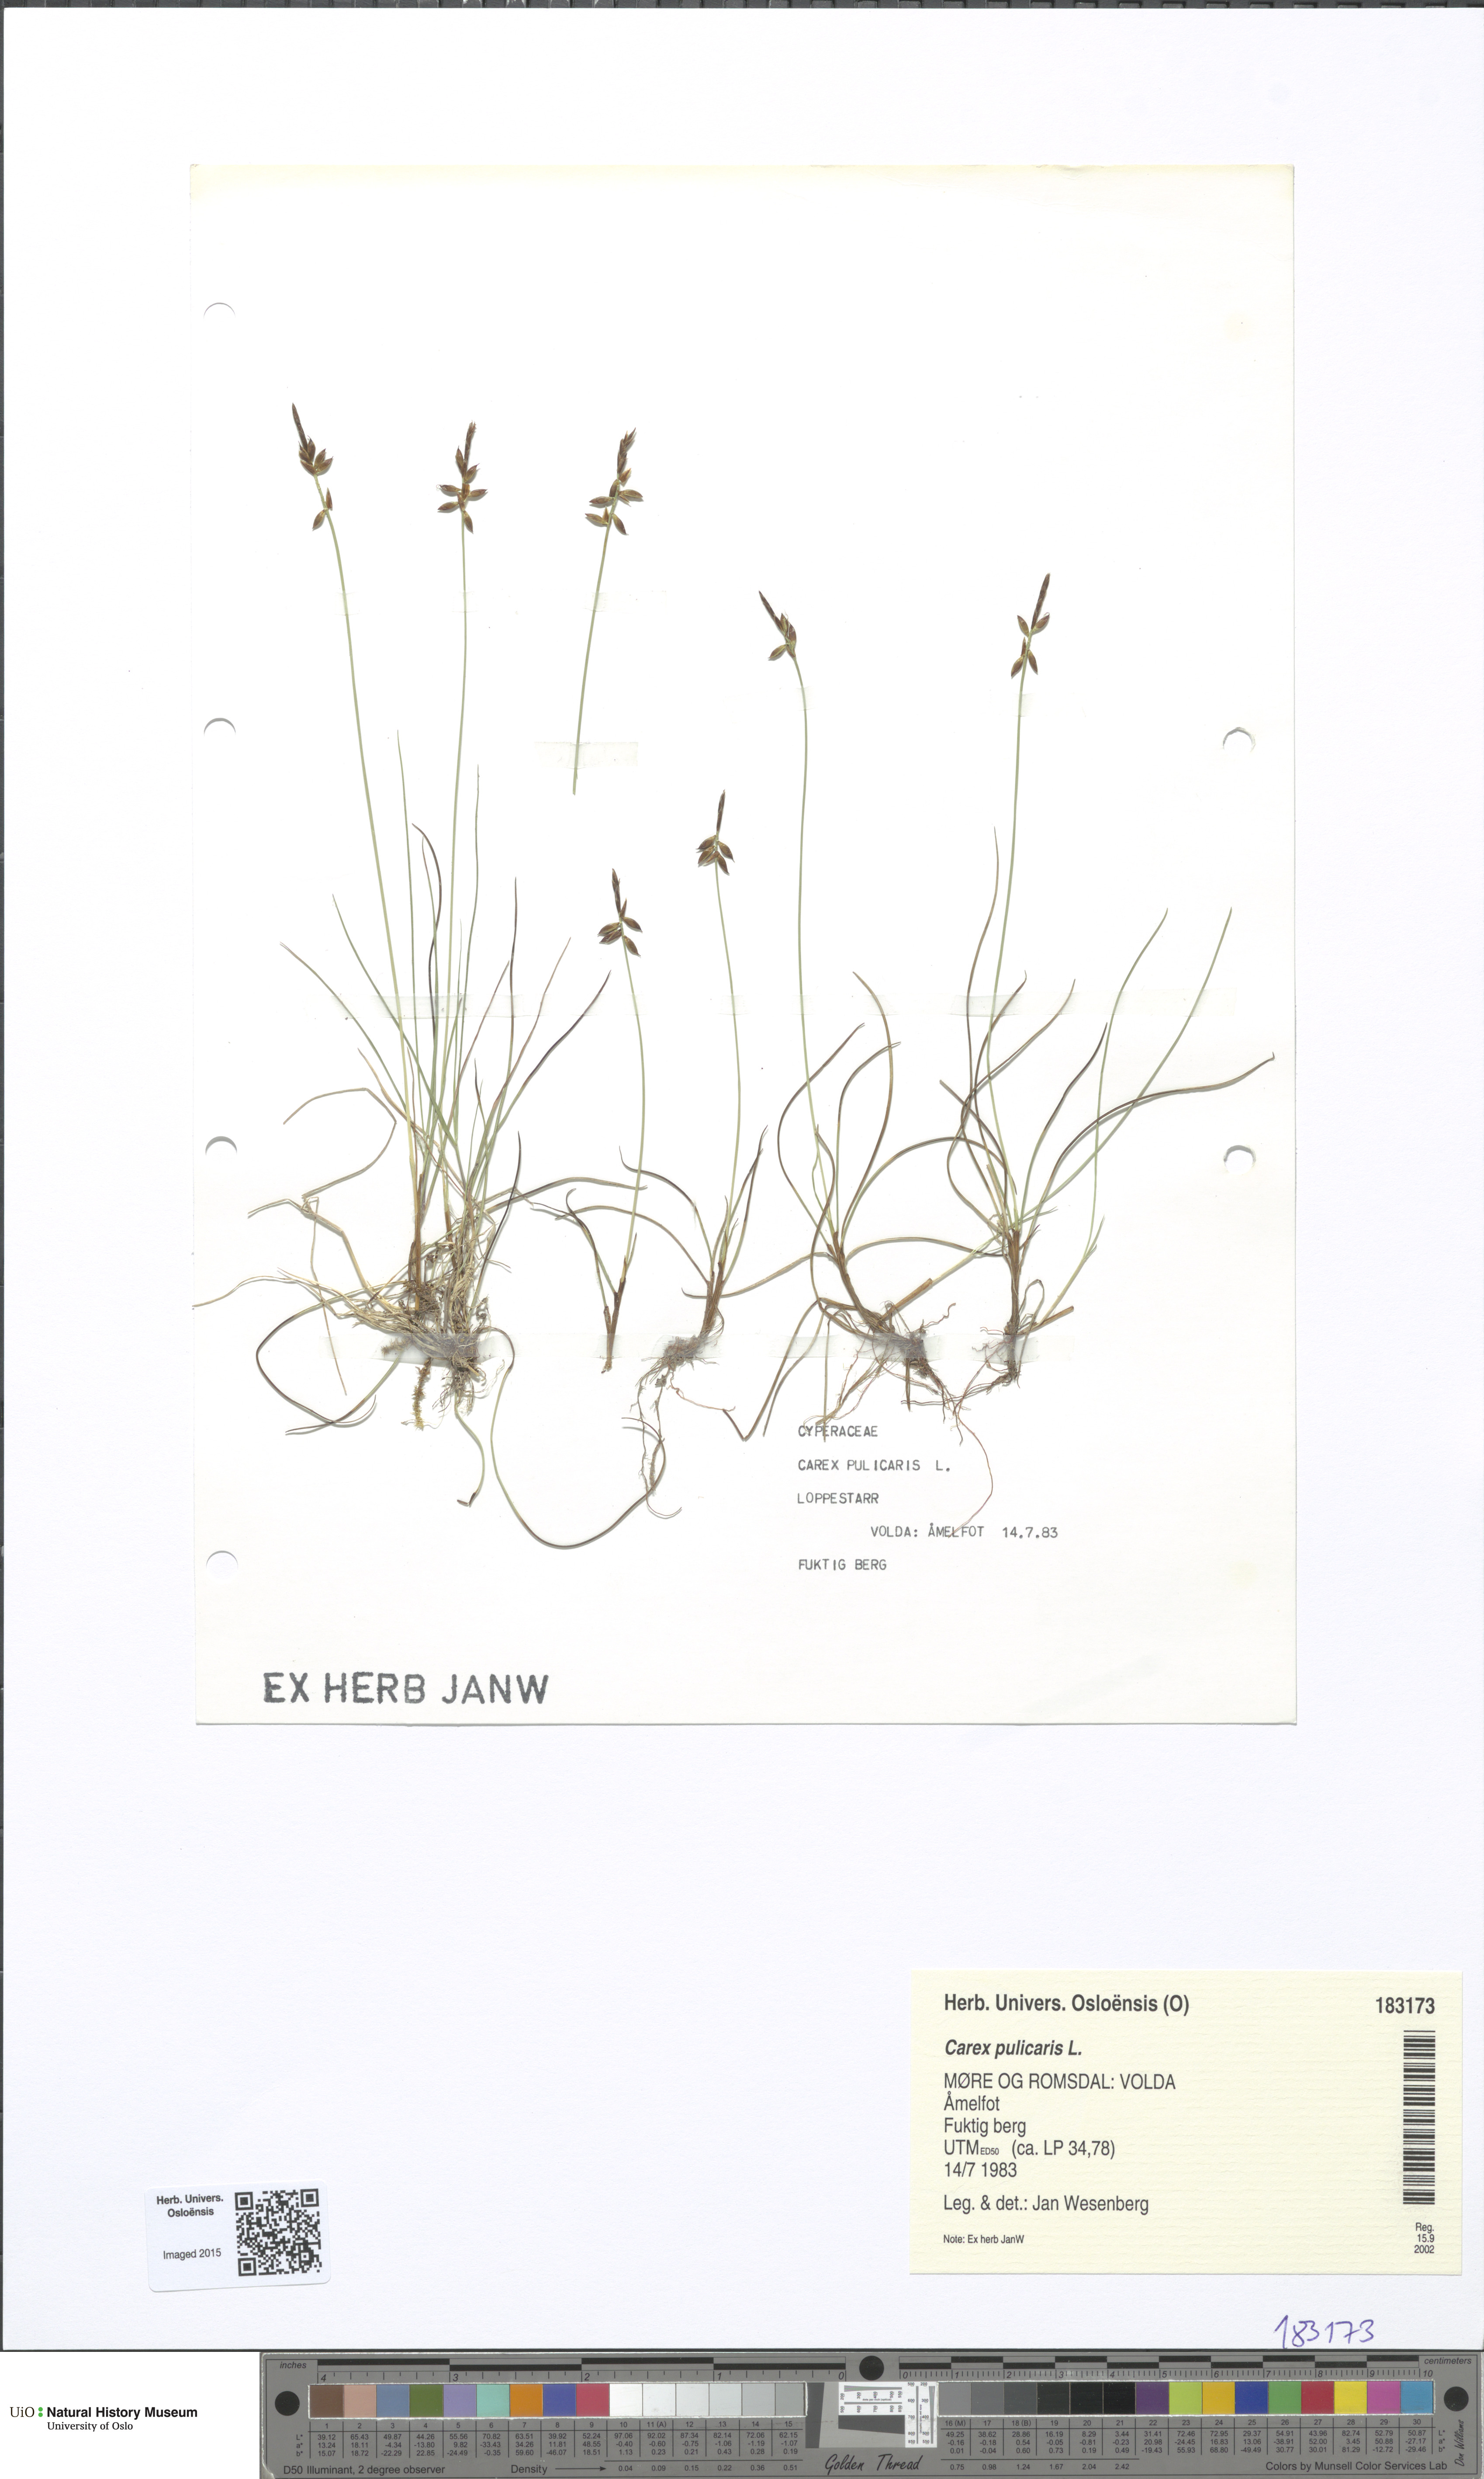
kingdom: Plantae
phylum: Tracheophyta
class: Liliopsida
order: Poales
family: Cyperaceae
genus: Carex
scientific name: Carex pulicaris
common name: Flea sedge
